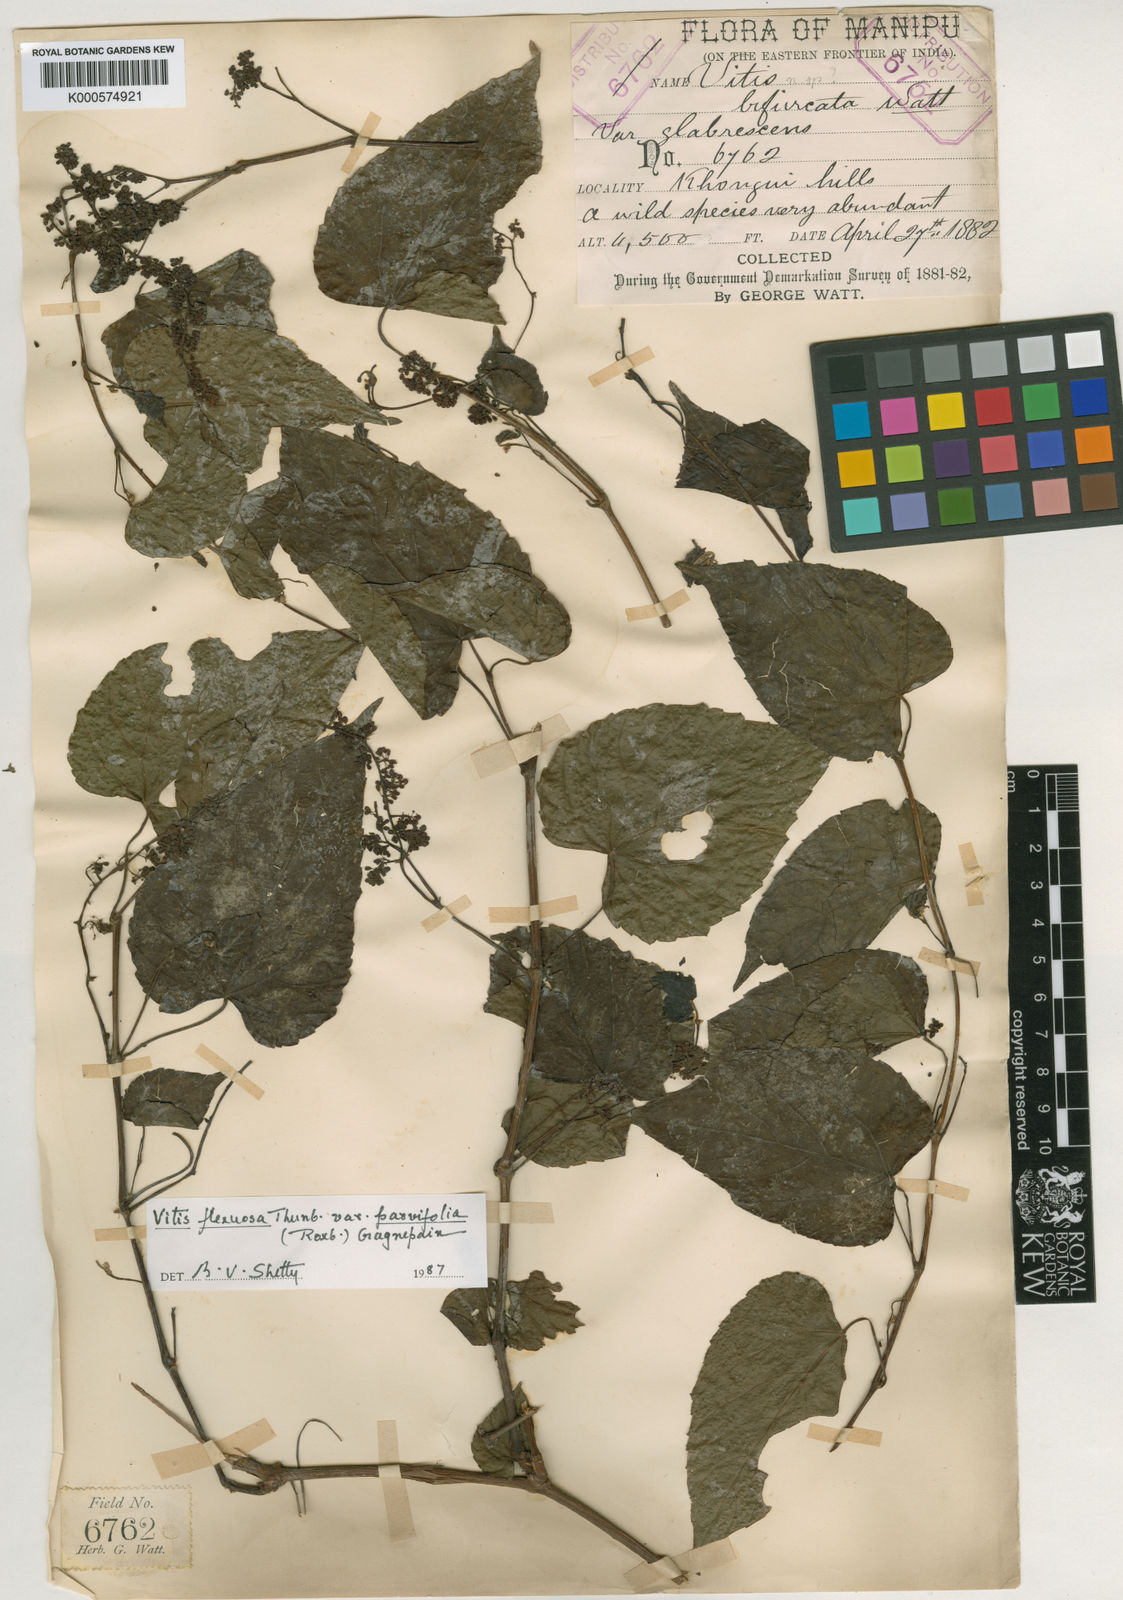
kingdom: Plantae
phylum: Tracheophyta
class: Magnoliopsida
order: Vitales
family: Vitaceae
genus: Vitis
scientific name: Vitis flexuosa
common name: Creeping grape
